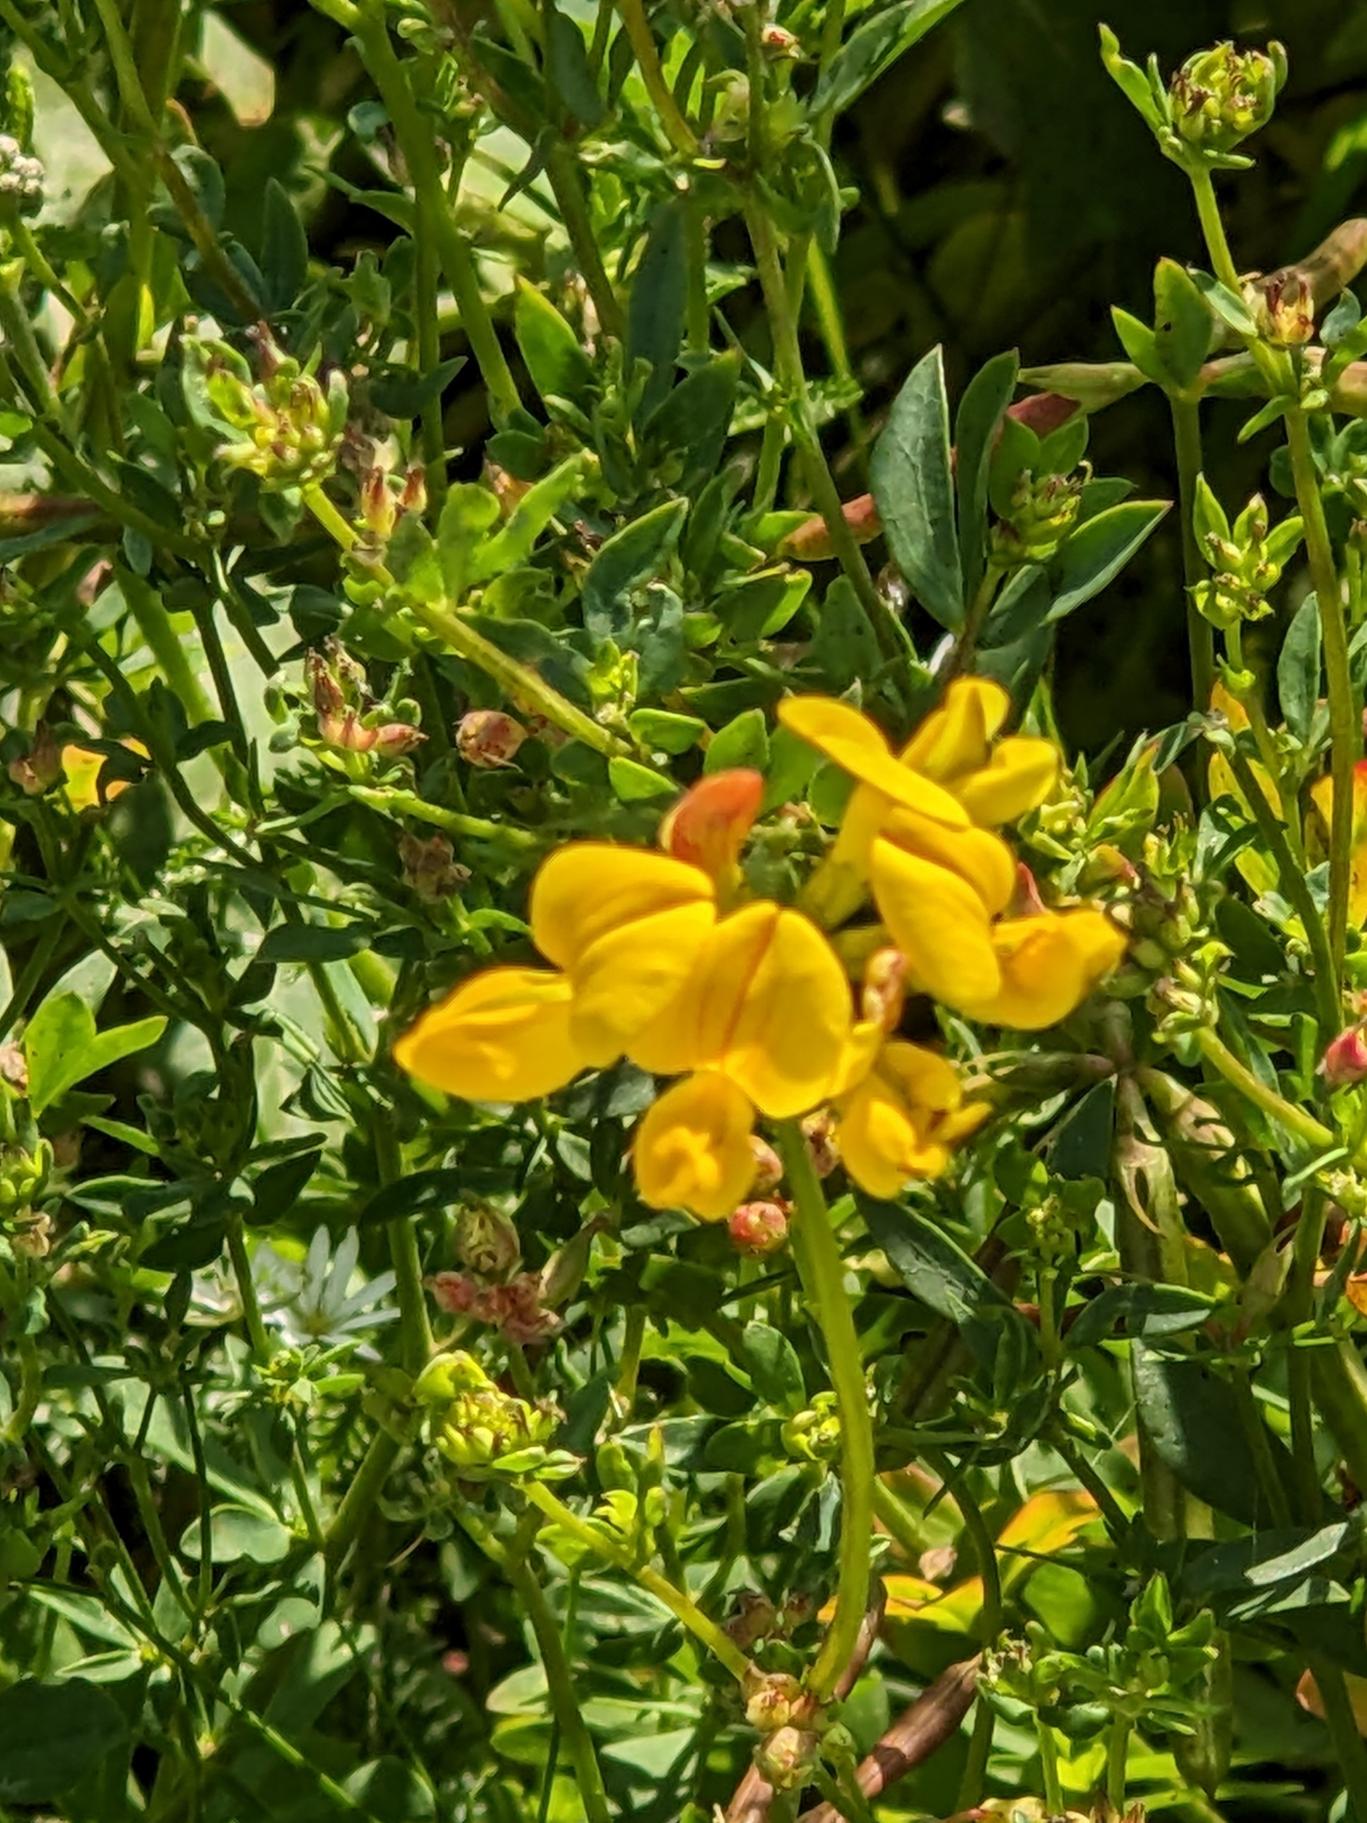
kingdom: Plantae
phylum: Tracheophyta
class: Magnoliopsida
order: Fabales
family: Fabaceae
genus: Lotus
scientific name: Lotus corniculatus
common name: Almindelig kællingetand
